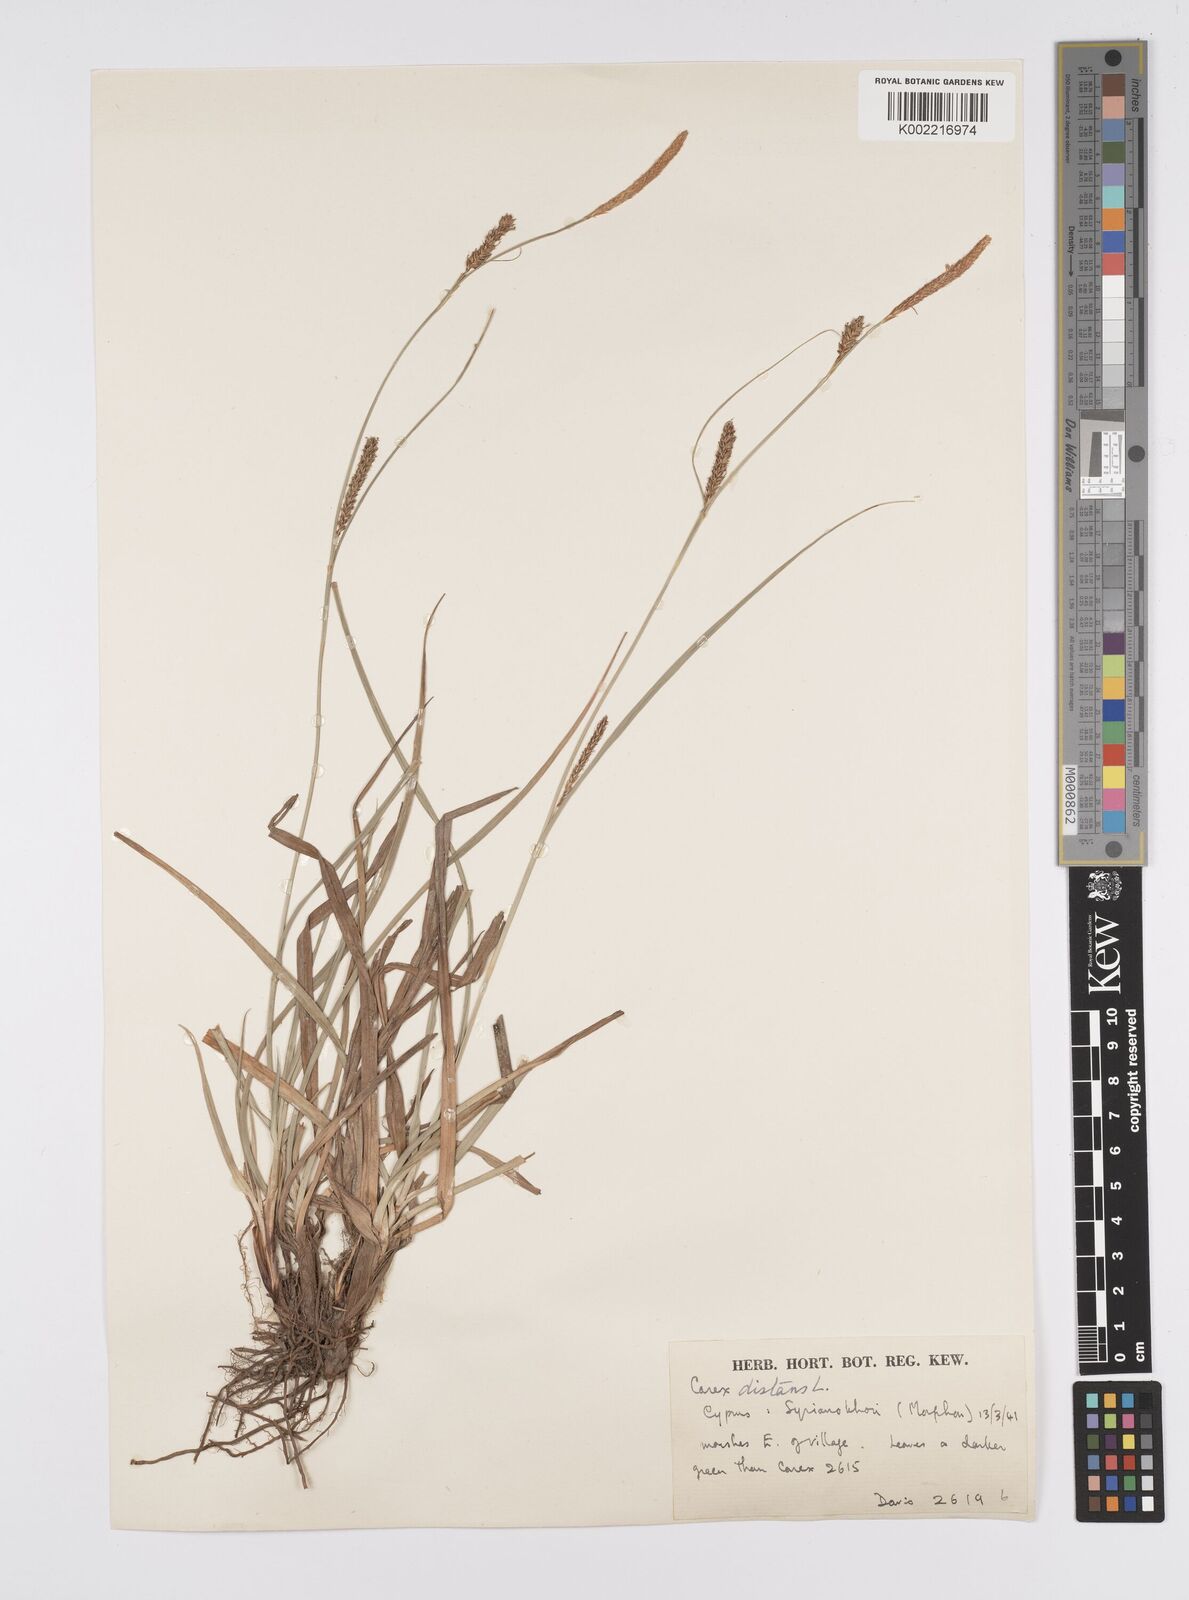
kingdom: Plantae
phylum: Tracheophyta
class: Liliopsida
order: Poales
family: Cyperaceae
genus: Carex
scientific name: Carex distans
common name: Distant sedge
